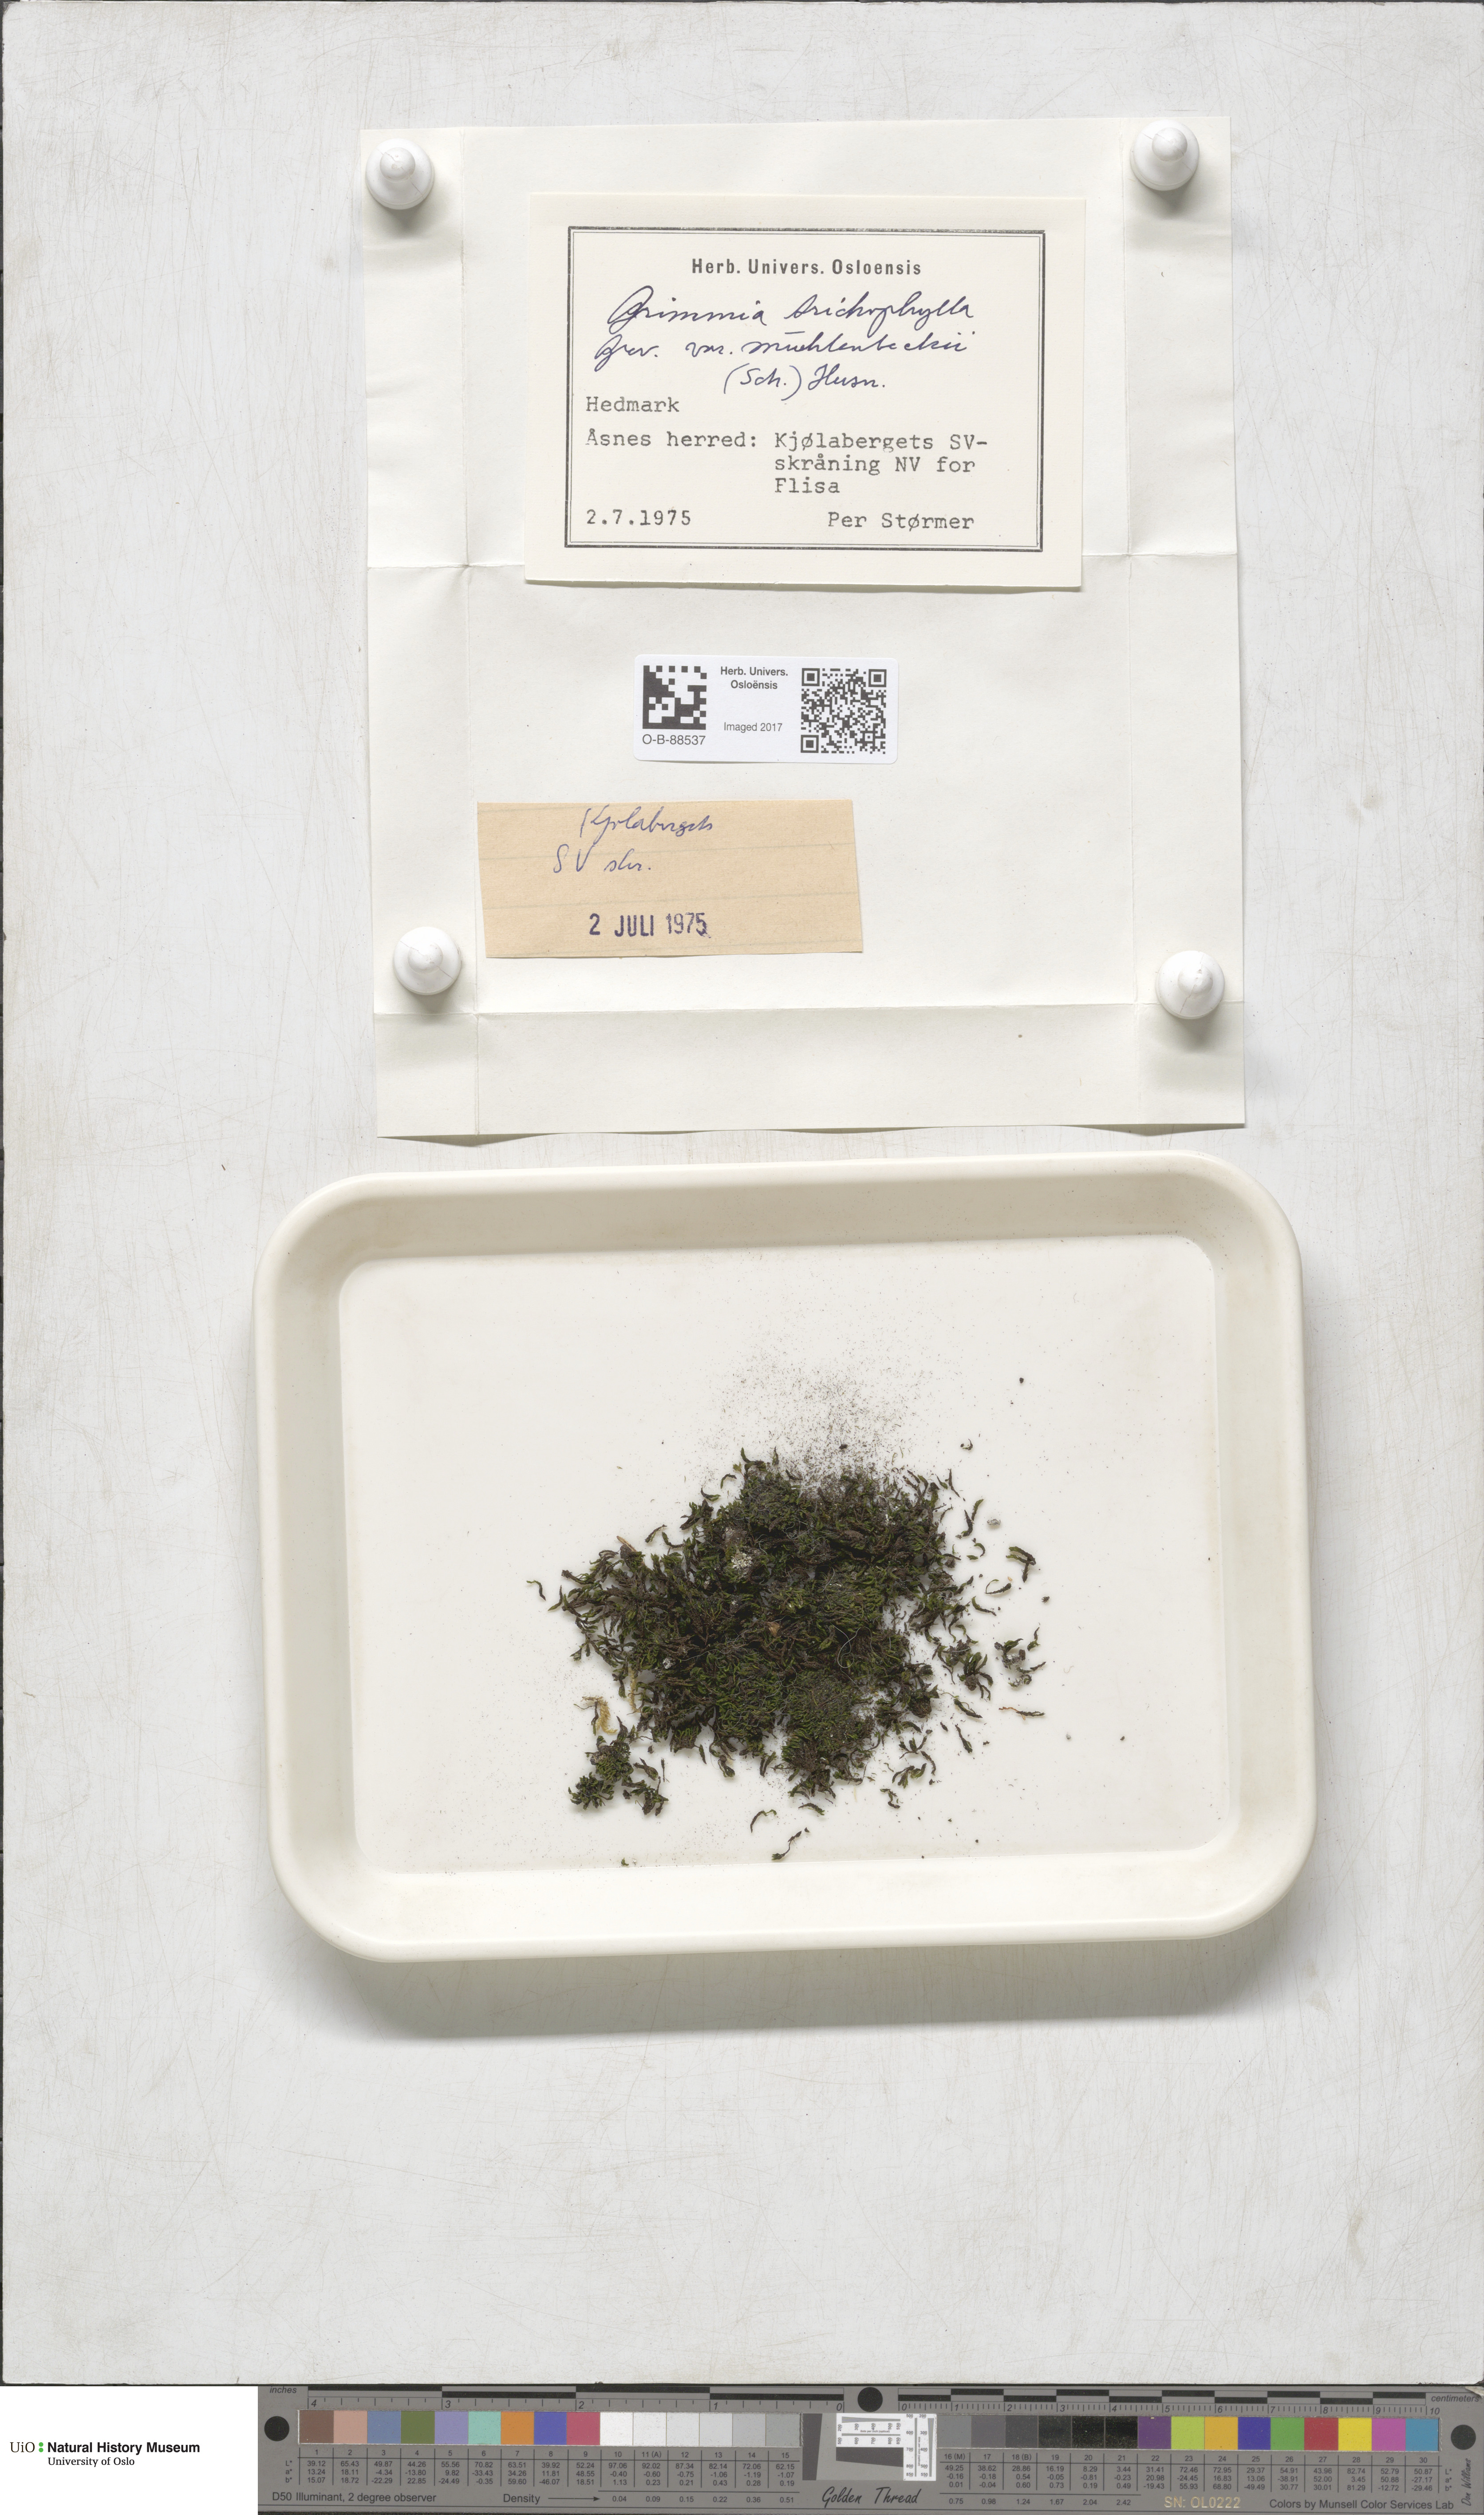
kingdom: Plantae
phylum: Bryophyta
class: Bryopsida
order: Grimmiales
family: Grimmiaceae
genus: Grimmia
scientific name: Grimmia muehlenbeckii
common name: Muehlenbeck's grimmia
